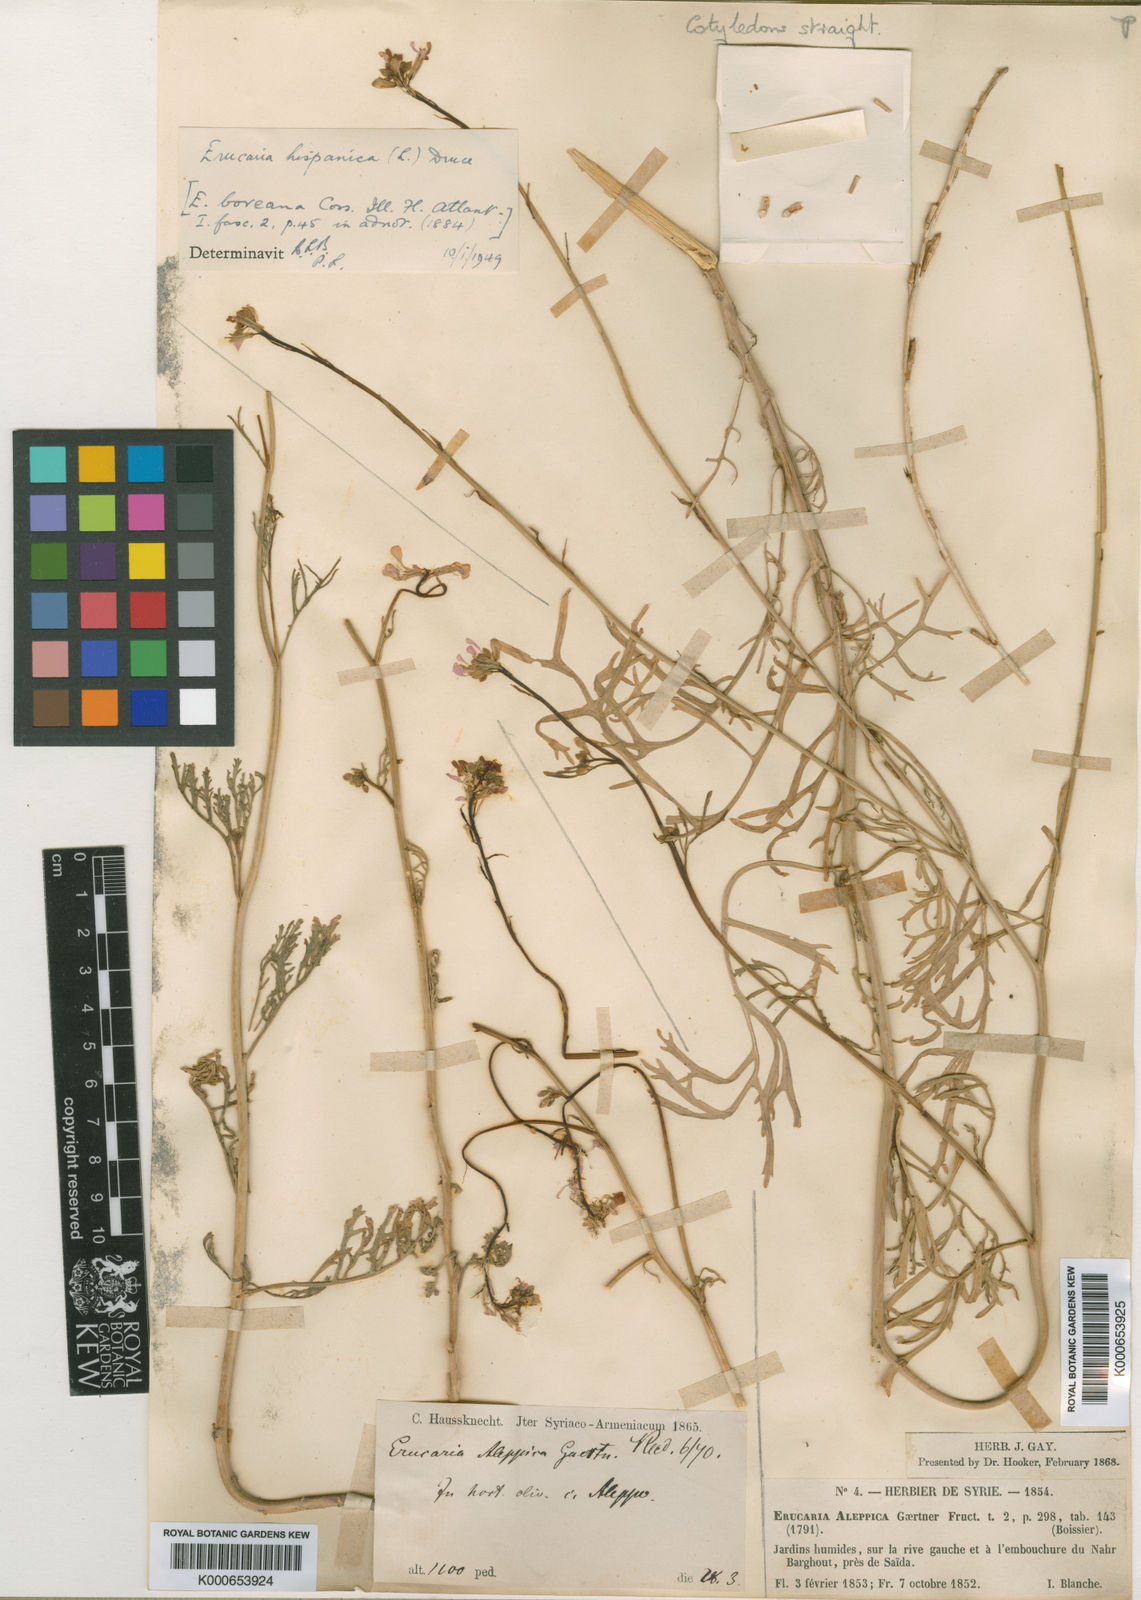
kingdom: Plantae
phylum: Tracheophyta
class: Magnoliopsida
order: Brassicales
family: Brassicaceae
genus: Erucaria
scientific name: Erucaria hispanica
